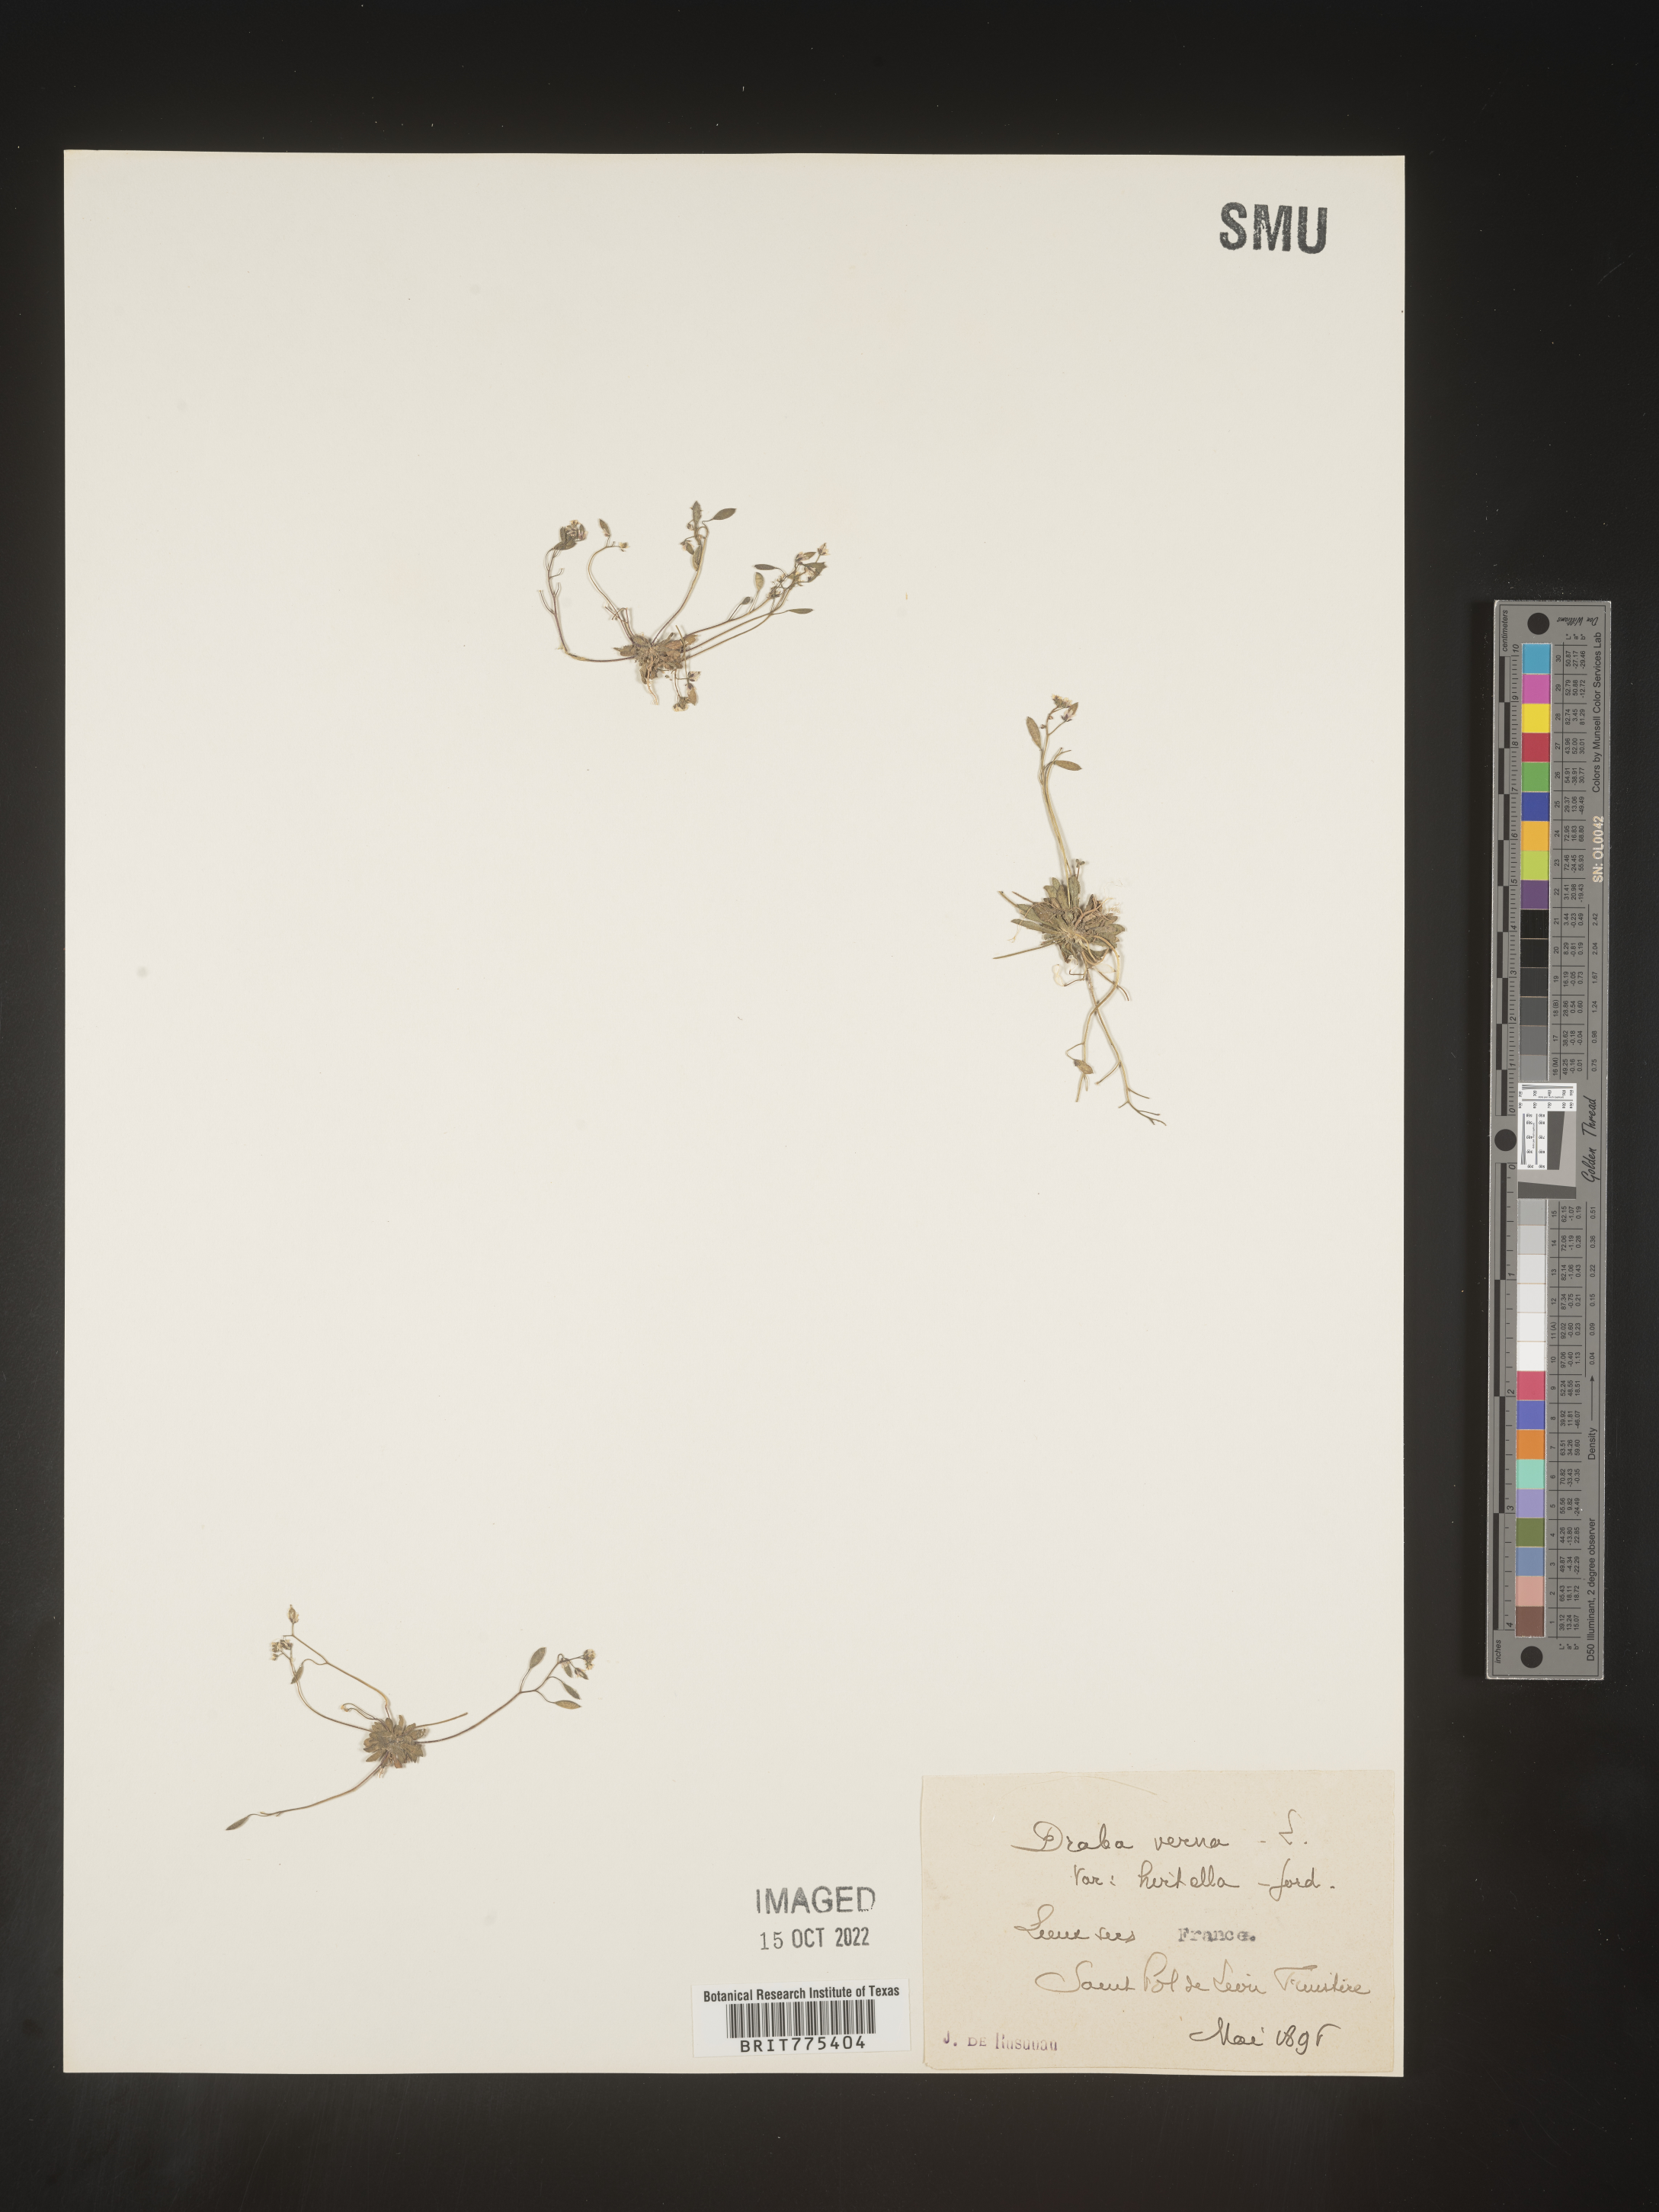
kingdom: Plantae
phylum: Tracheophyta
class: Magnoliopsida
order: Brassicales
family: Brassicaceae
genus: Draba
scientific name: Draba
